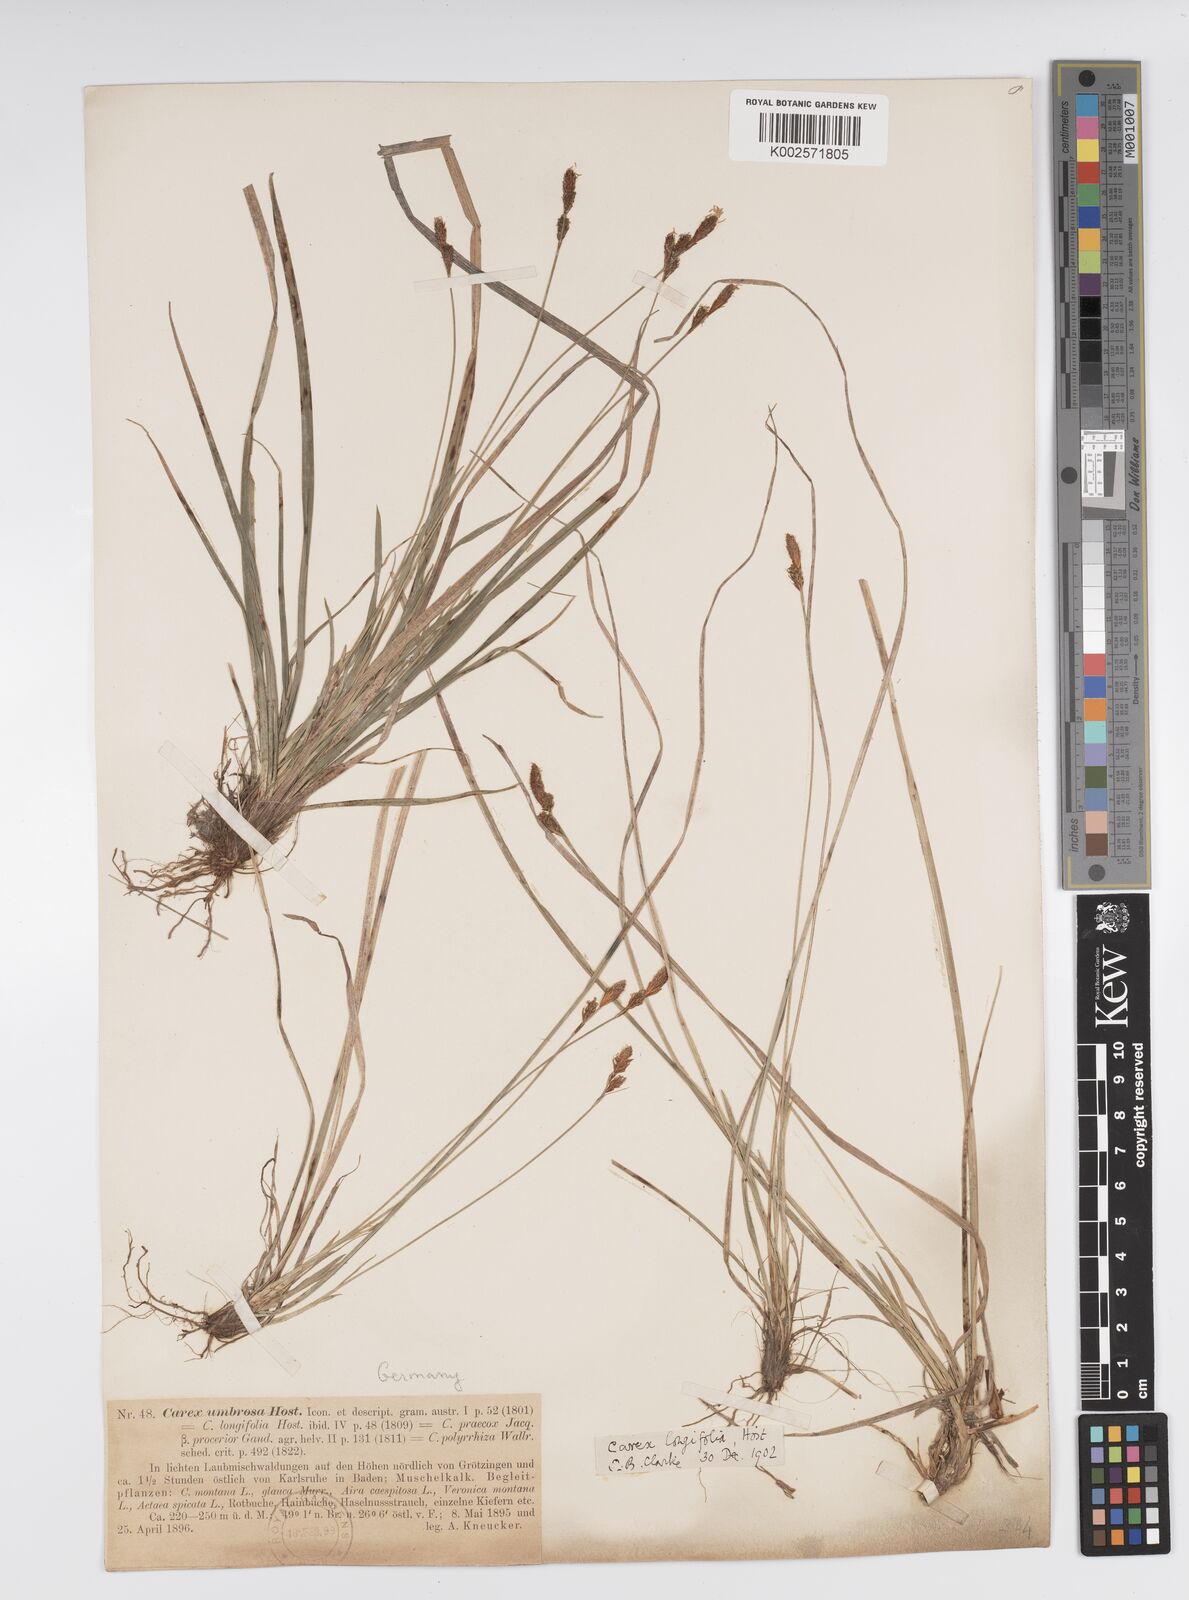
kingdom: Plantae
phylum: Tracheophyta
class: Liliopsida
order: Poales
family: Cyperaceae
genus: Carex
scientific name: Carex umbrosa
